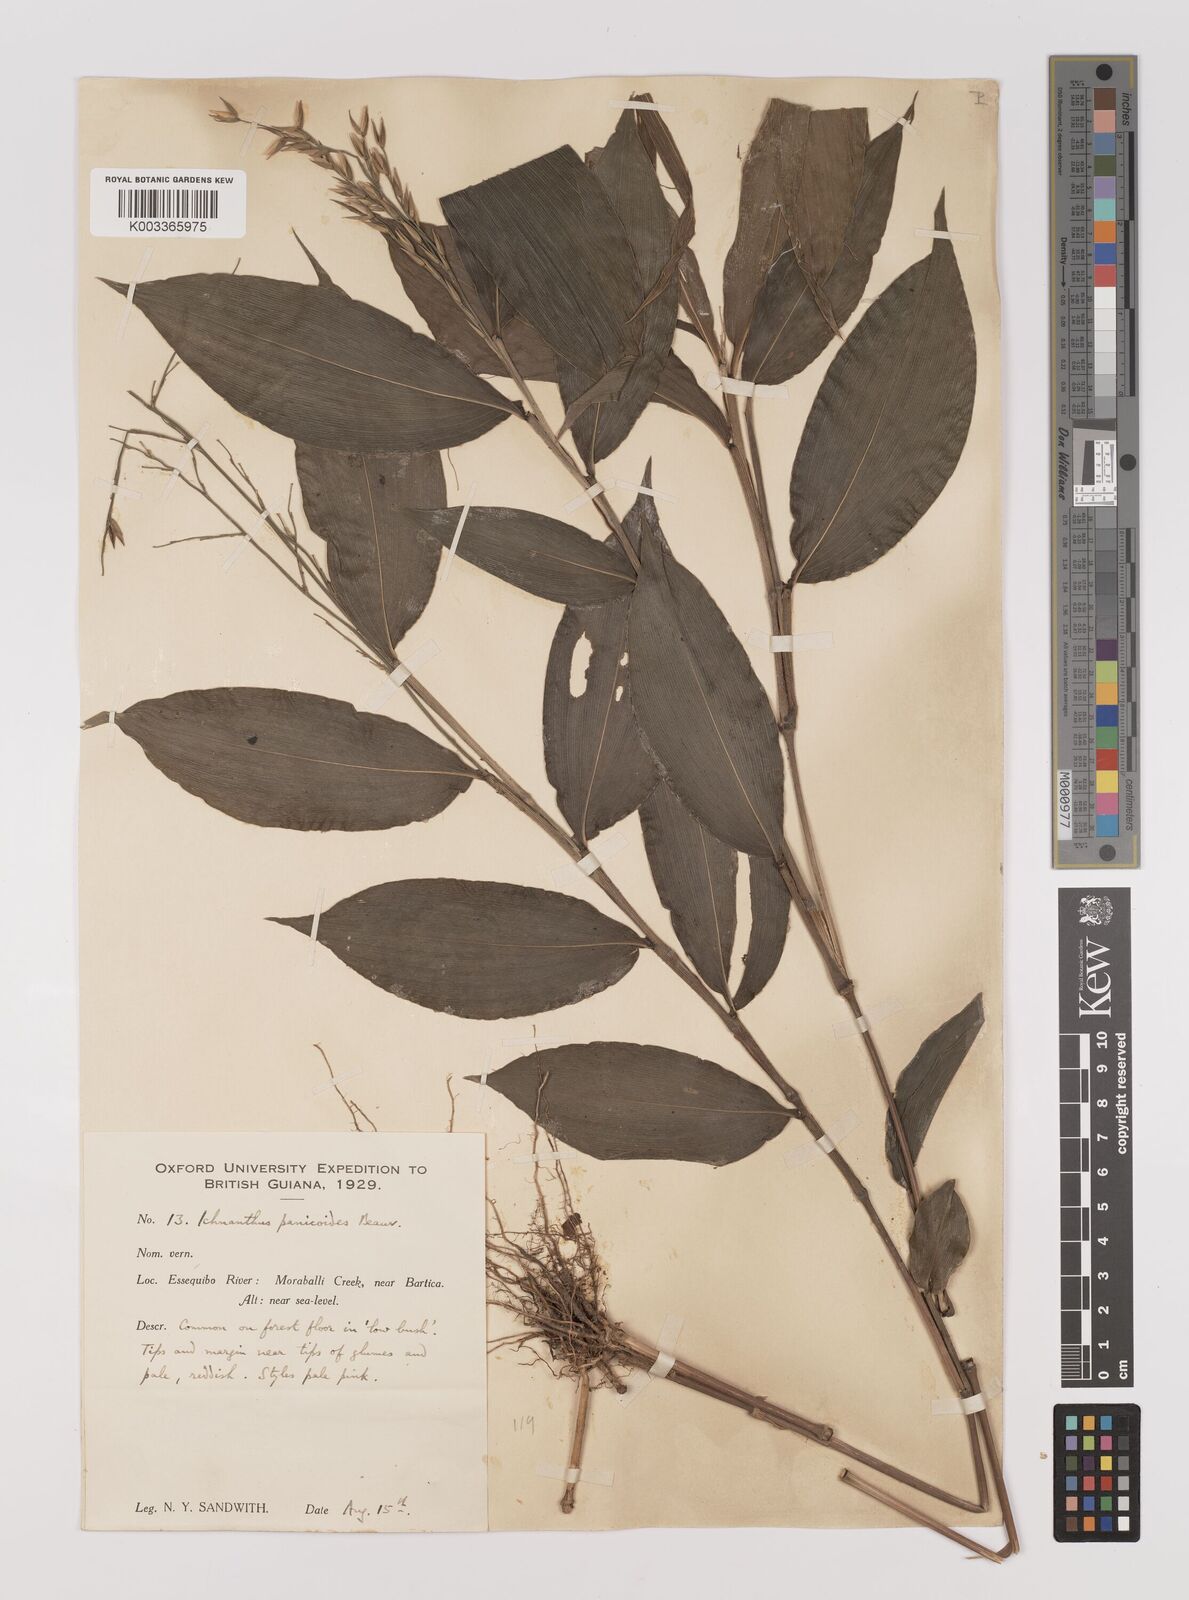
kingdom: Plantae
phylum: Tracheophyta
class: Liliopsida
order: Poales
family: Poaceae
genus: Ichnanthus
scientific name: Ichnanthus panicoides
